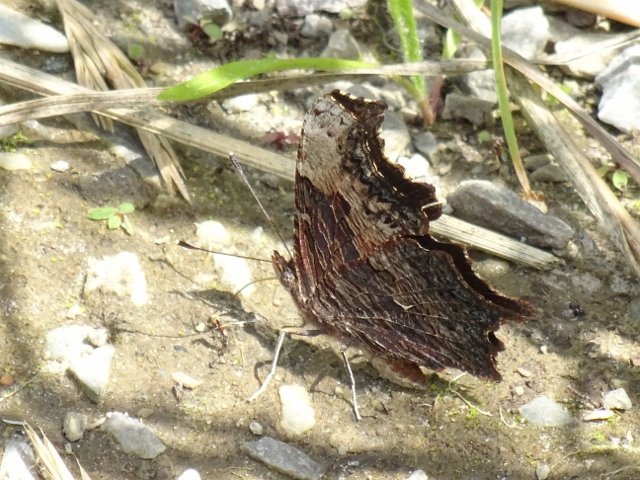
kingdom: Animalia
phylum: Arthropoda
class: Insecta
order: Lepidoptera
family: Nymphalidae
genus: Polygonia
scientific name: Polygonia progne
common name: Gray Comma
